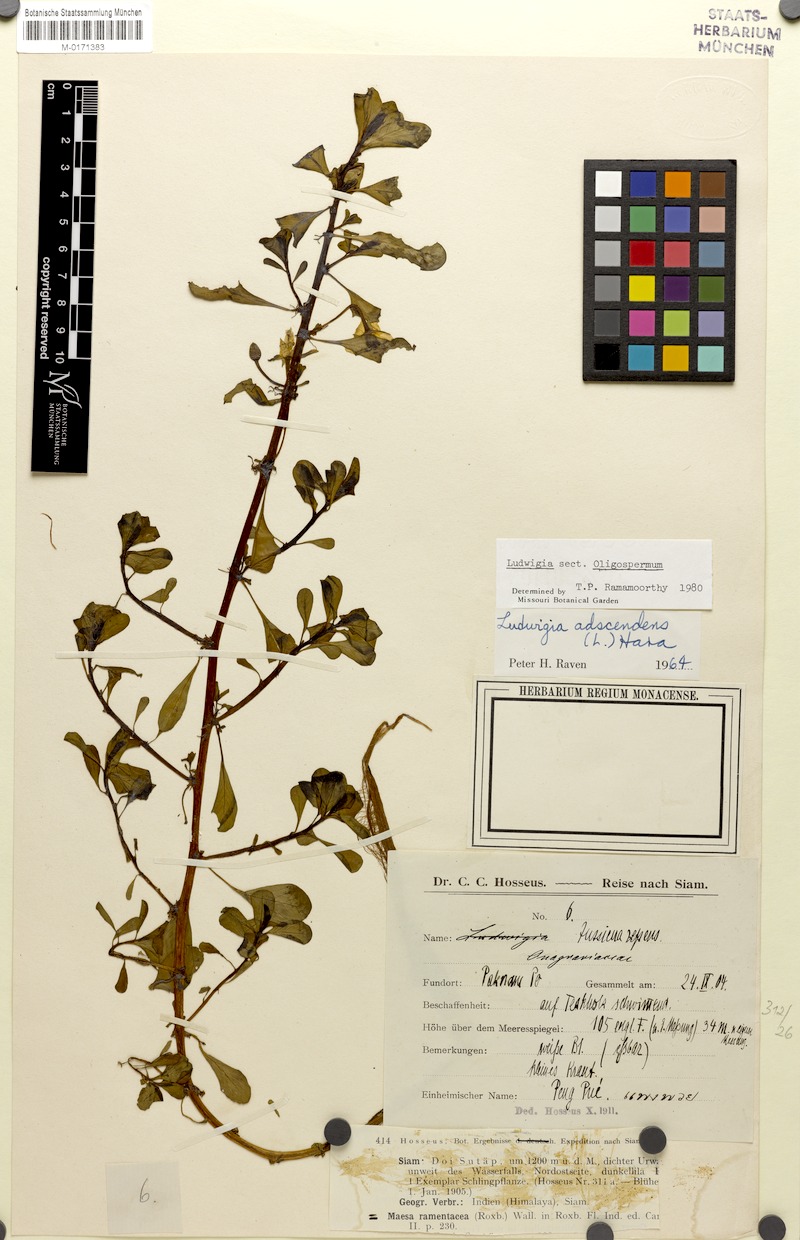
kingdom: Plantae
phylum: Tracheophyta
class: Magnoliopsida
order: Myrtales
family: Onagraceae
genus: Ludwigia
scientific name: Ludwigia adscendens
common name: Creeping water primrose
